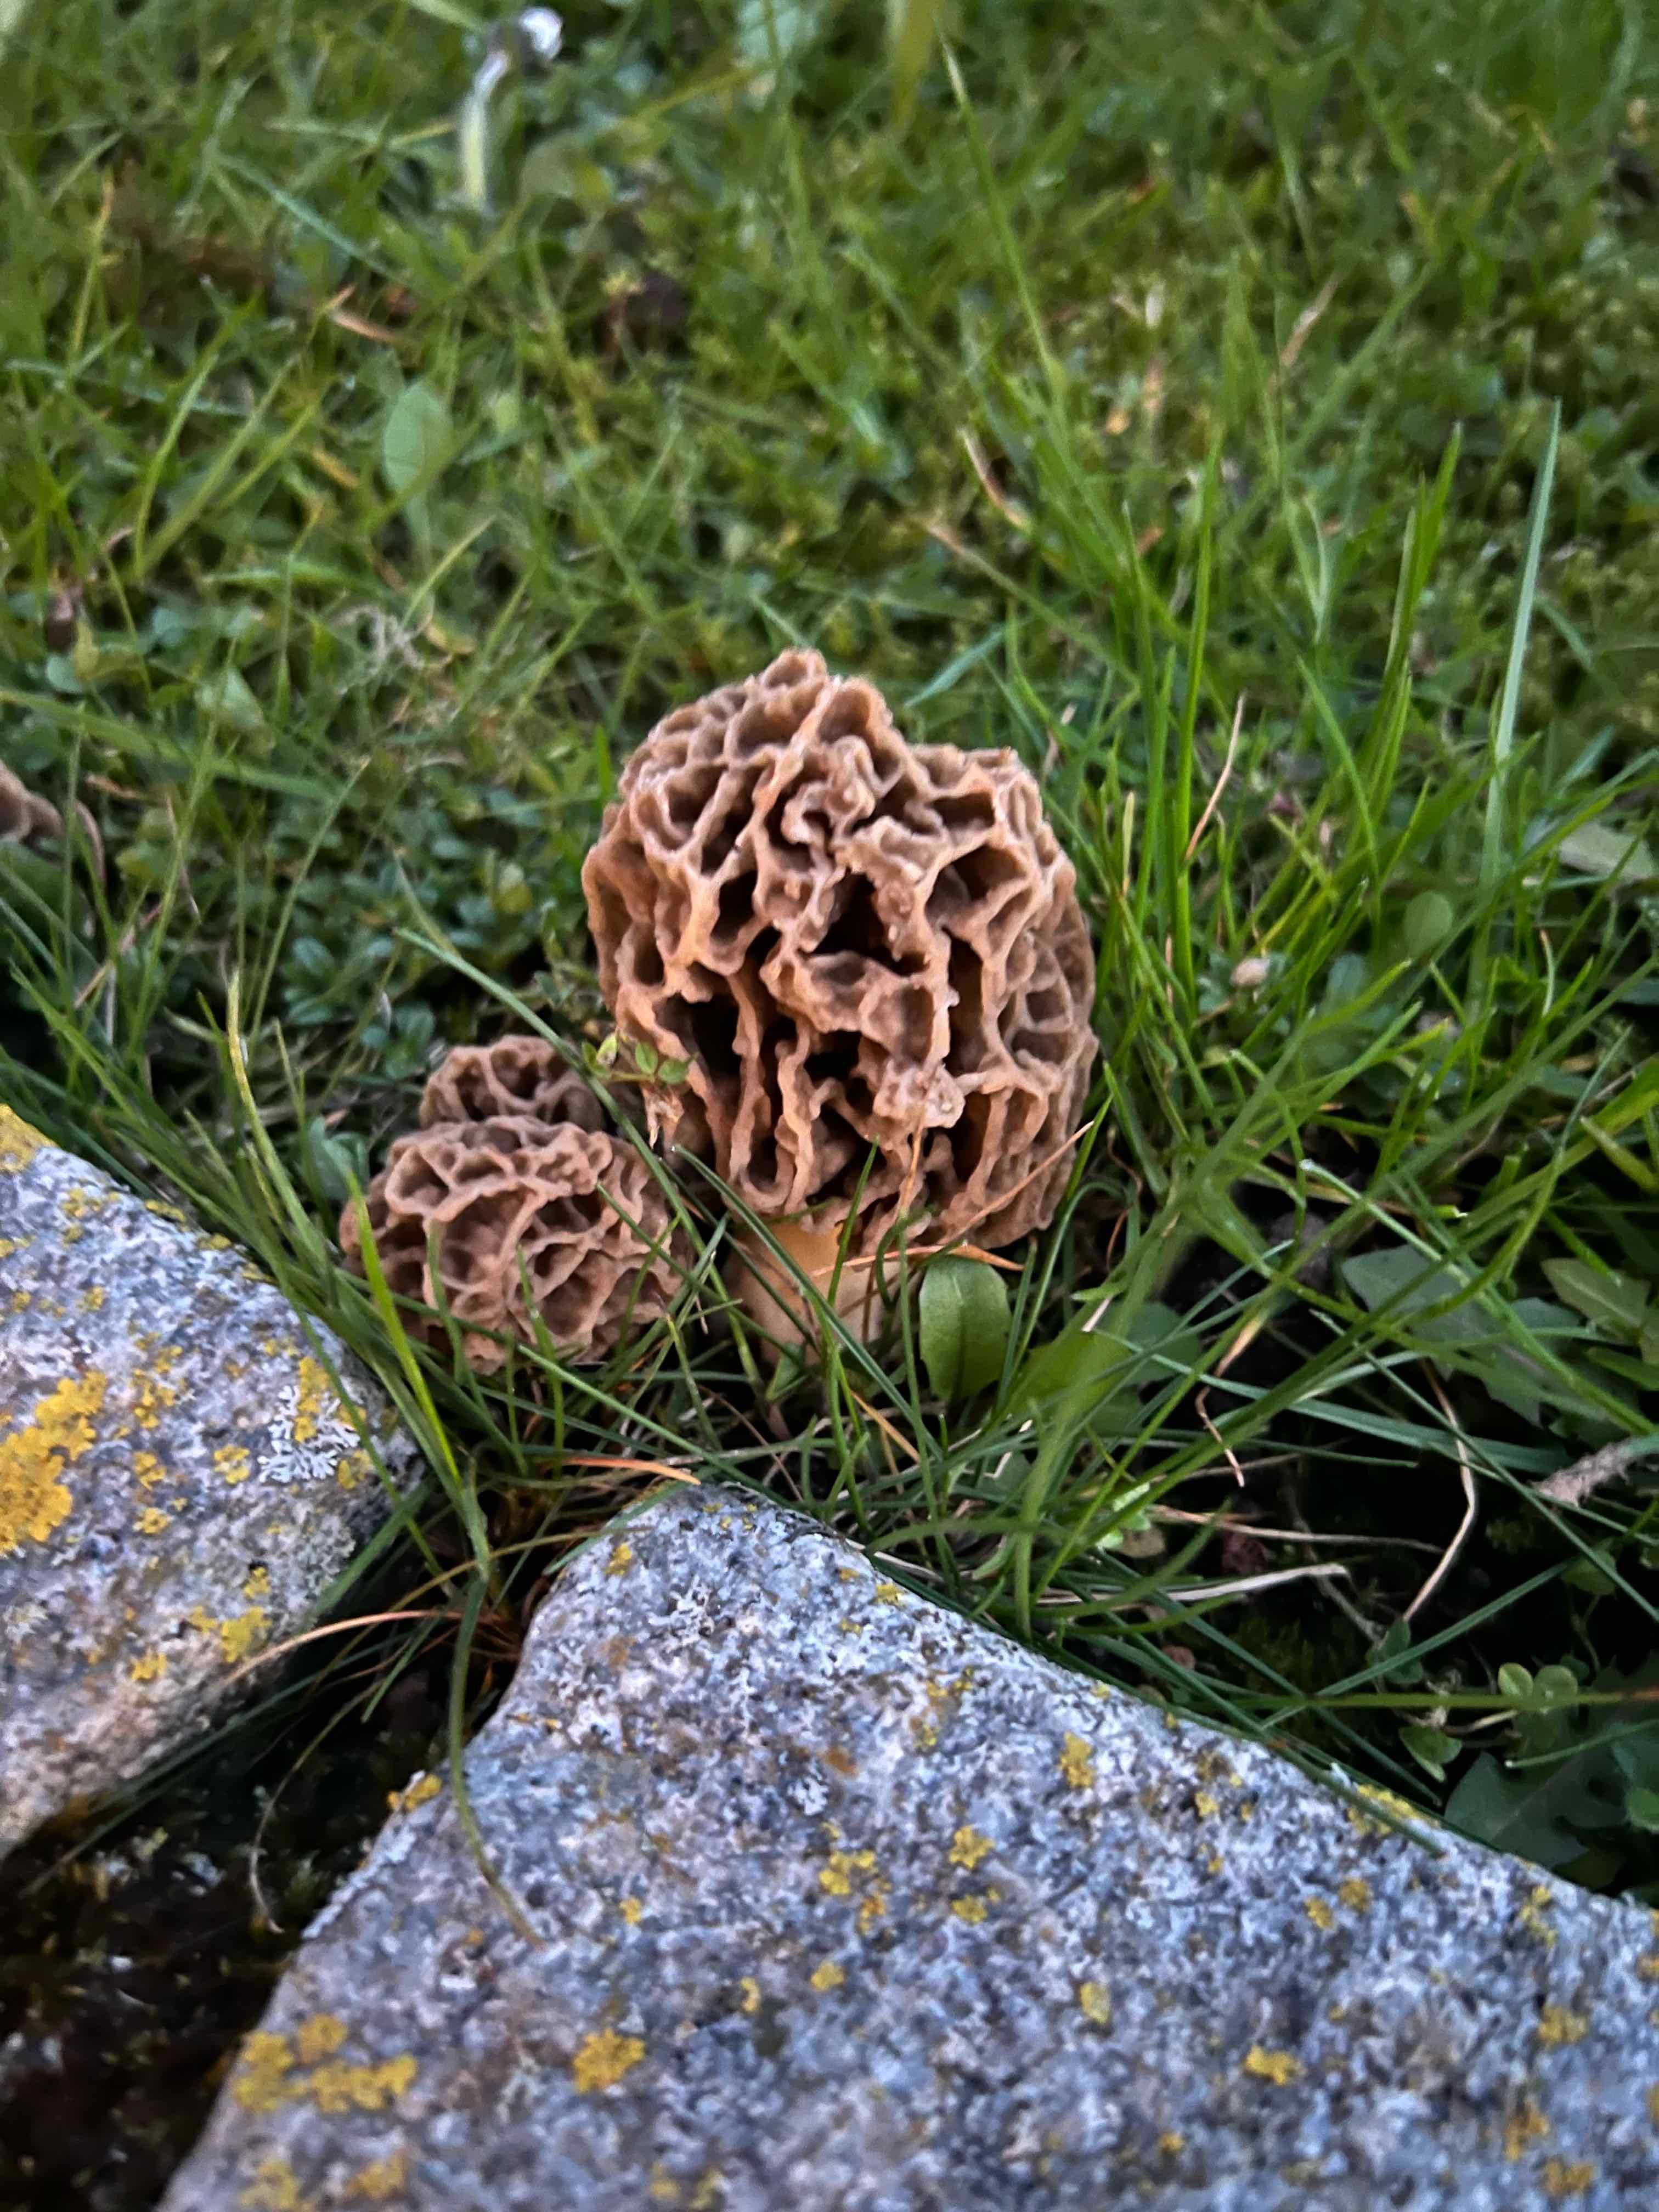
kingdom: Fungi
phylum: Ascomycota
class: Pezizomycetes
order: Pezizales
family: Morchellaceae
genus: Morchella
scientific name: Morchella esculenta
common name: almindelig morkel
